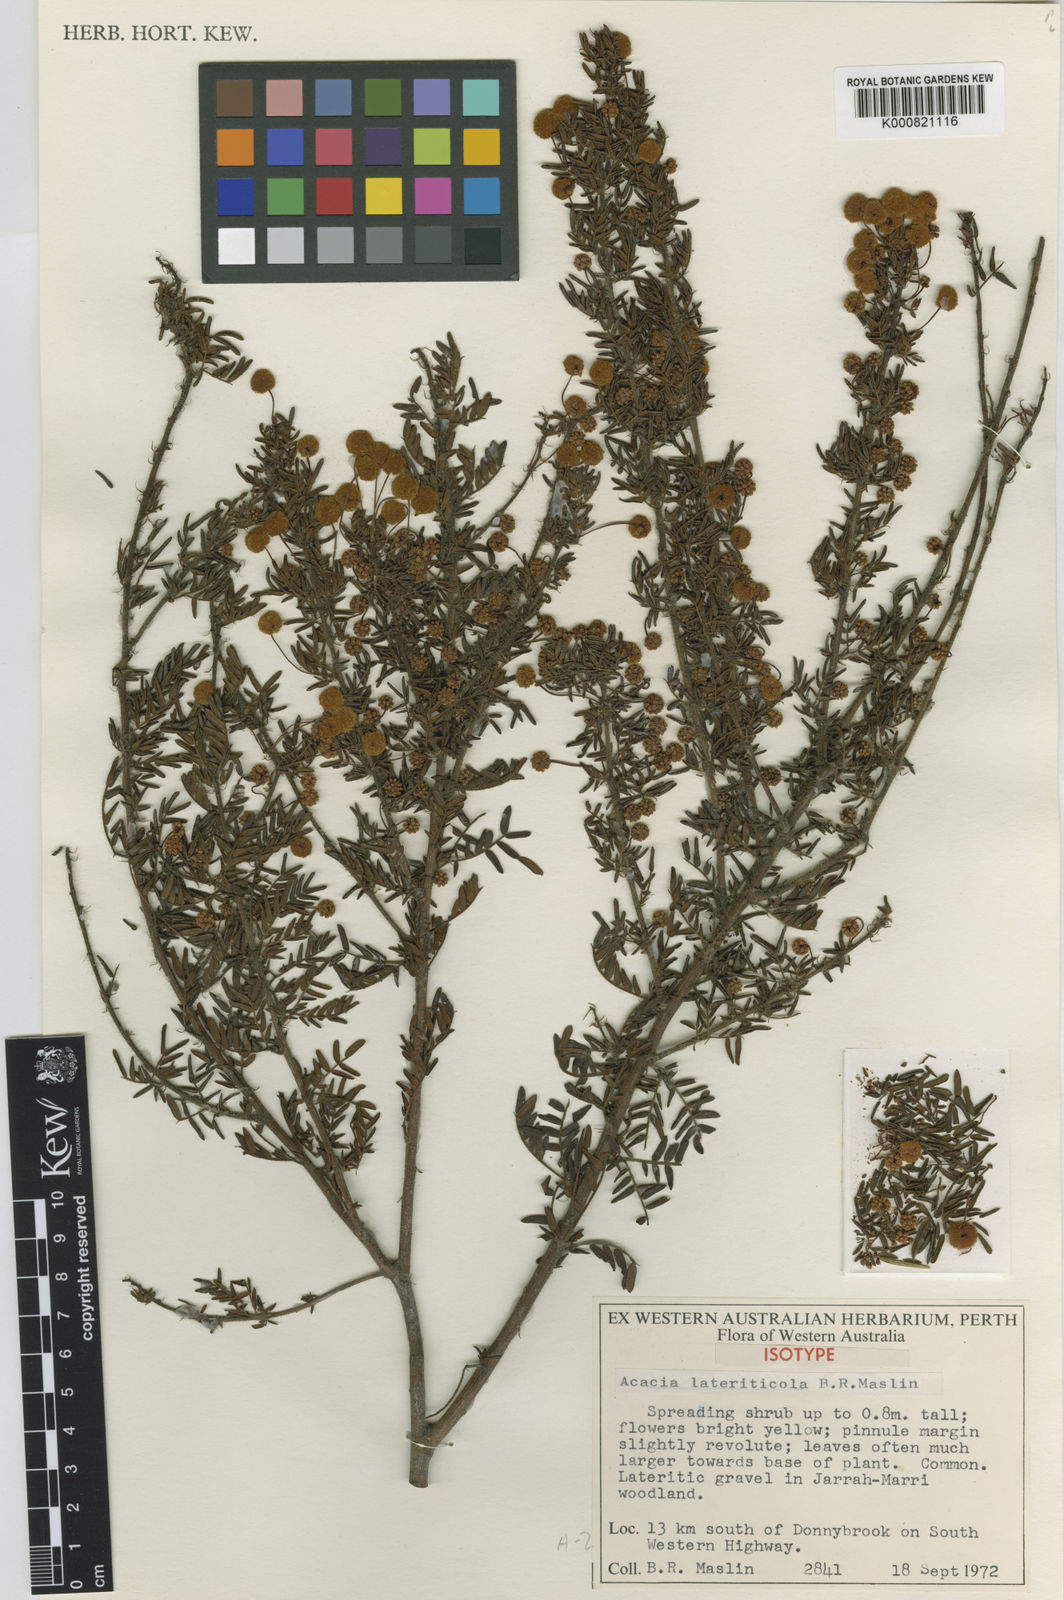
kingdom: Plantae
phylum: Tracheophyta
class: Magnoliopsida
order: Fabales
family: Fabaceae
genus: Acacia
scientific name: Acacia lateriticola
